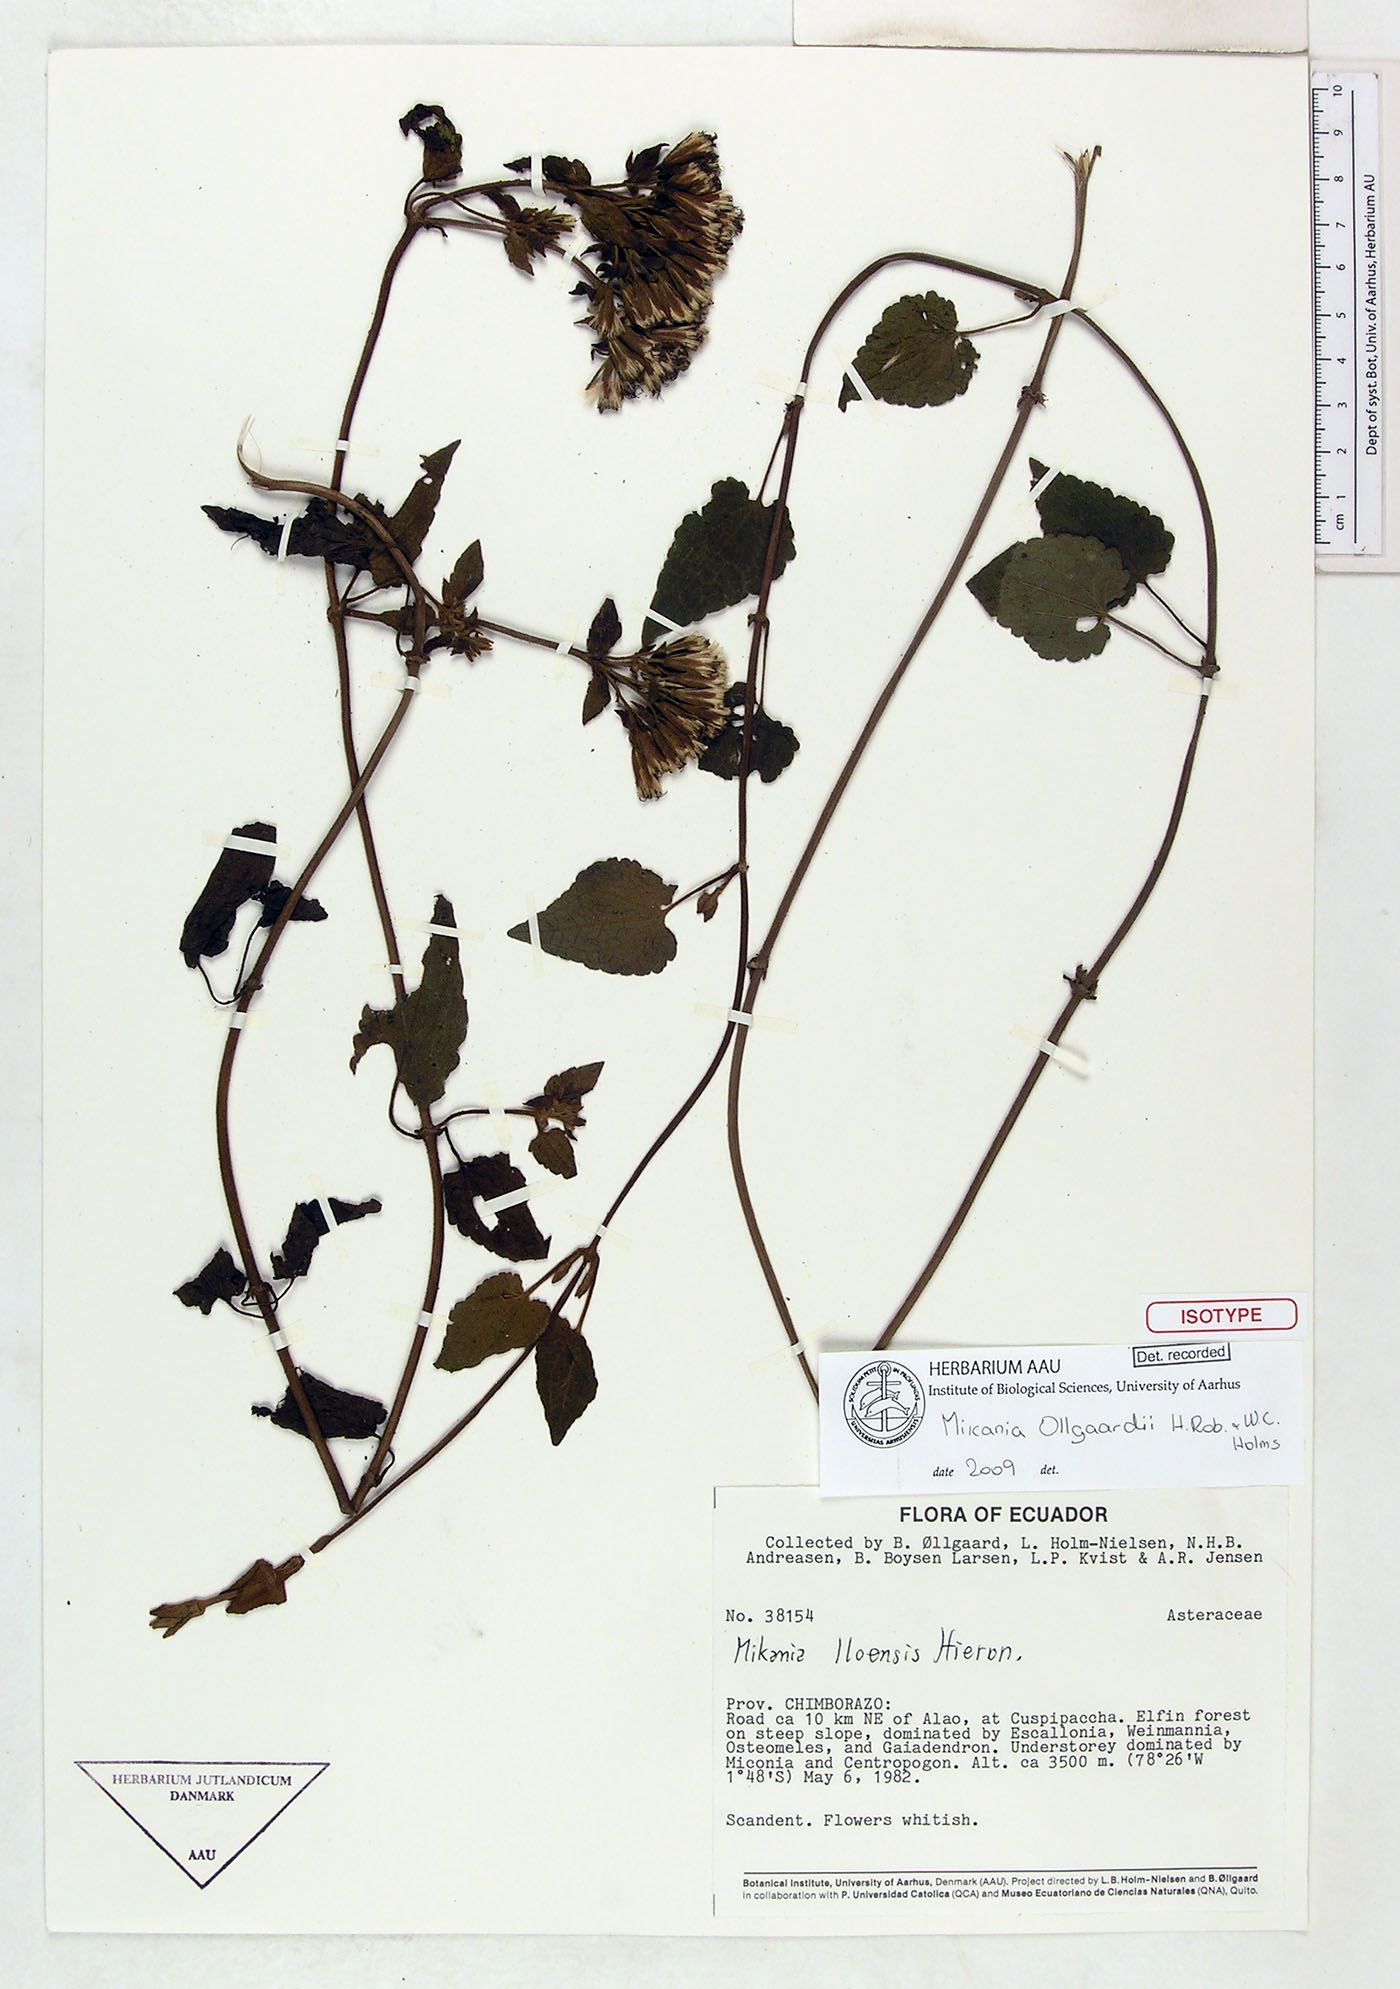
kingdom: Plantae
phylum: Tracheophyta
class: Magnoliopsida
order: Asterales
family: Asteraceae
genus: Mikania
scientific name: Mikania ollgaardii
